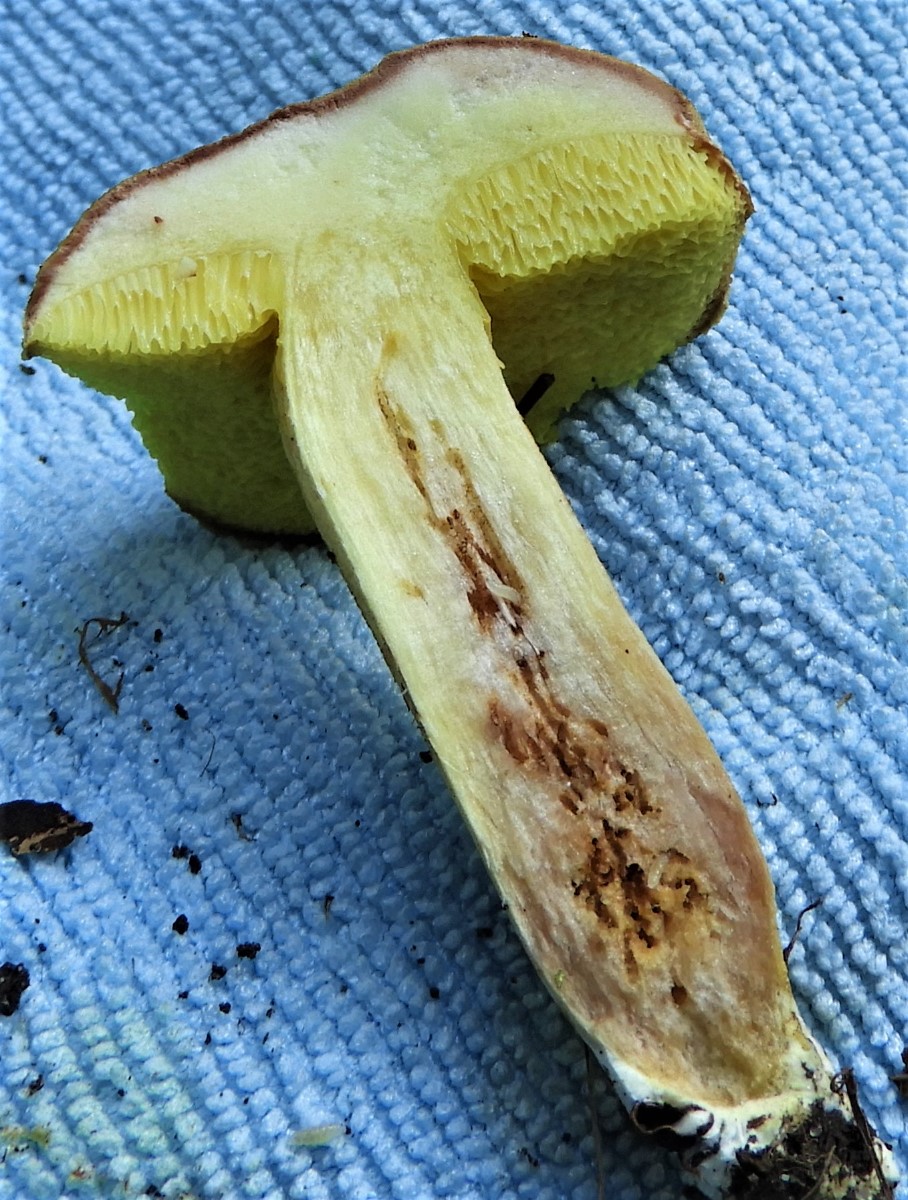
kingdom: Fungi
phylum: Basidiomycota
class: Agaricomycetes
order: Boletales
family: Boletaceae
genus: Xerocomus
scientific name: Xerocomus subtomentosus
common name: filtet rørhat
